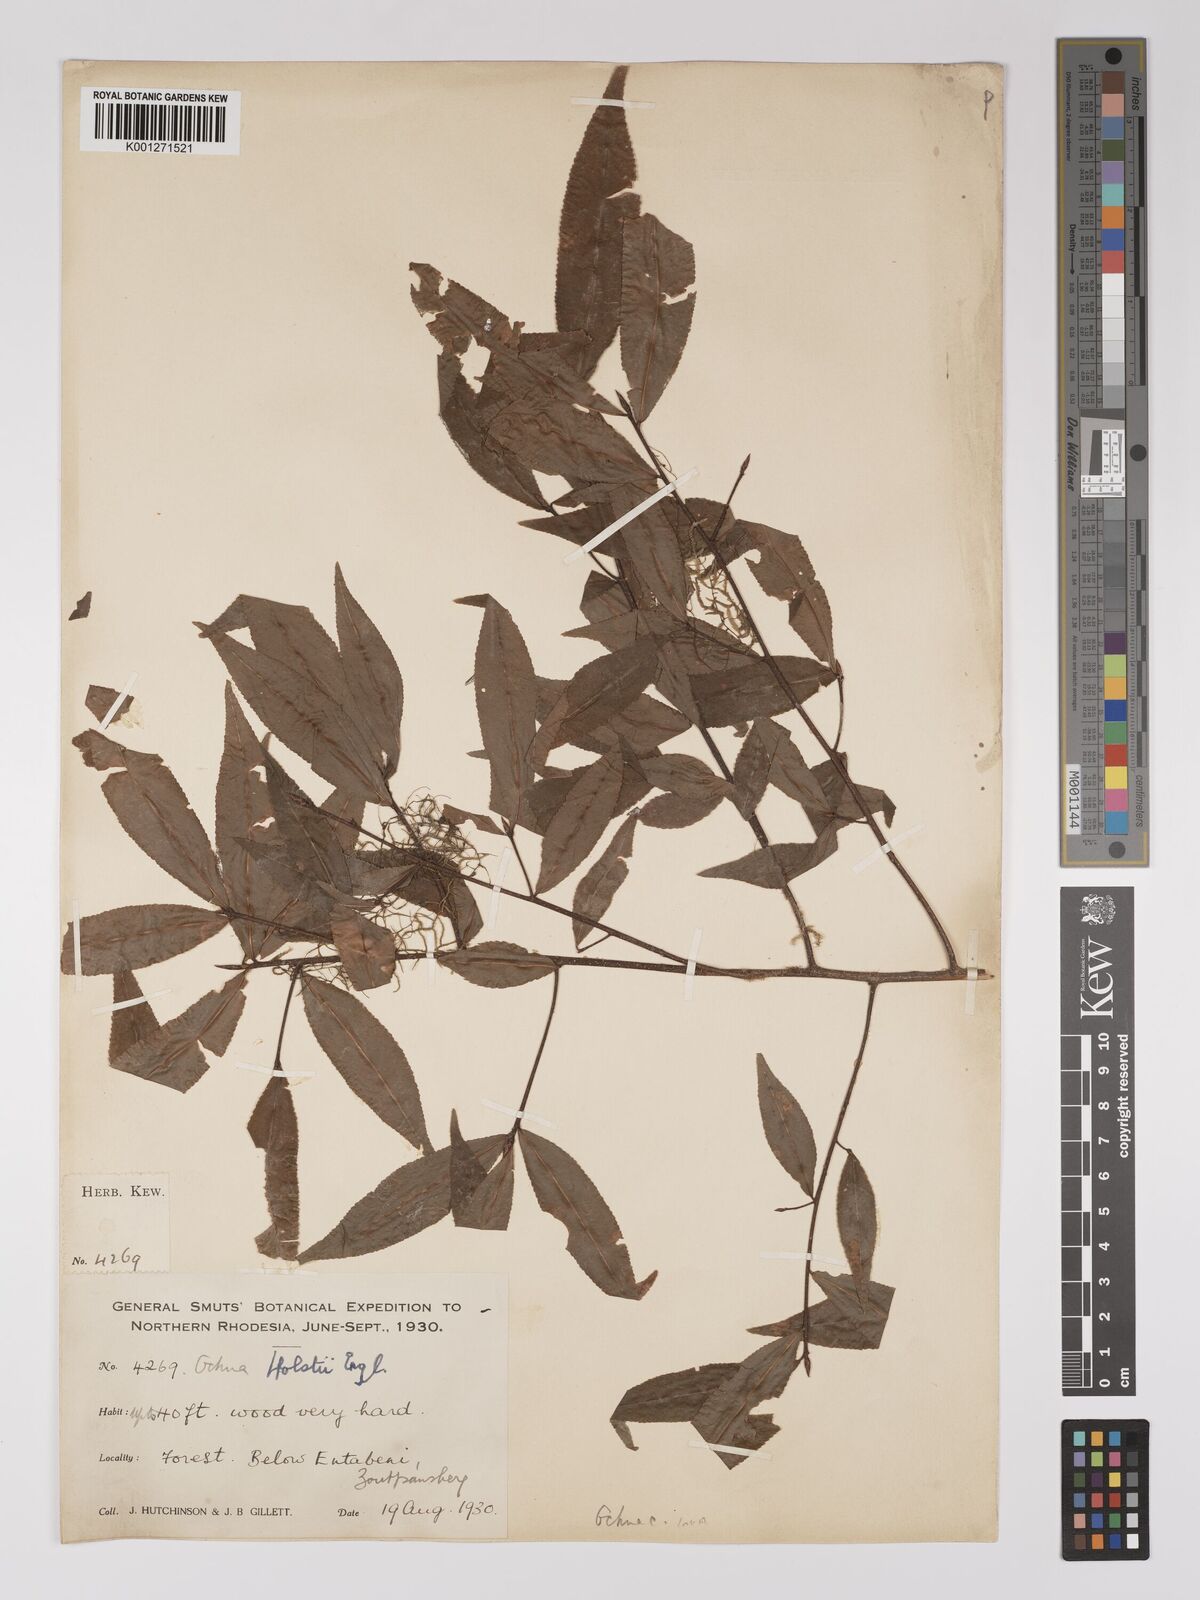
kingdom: Plantae
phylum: Tracheophyta
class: Magnoliopsida
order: Malpighiales
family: Ochnaceae
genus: Ochna
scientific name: Ochna holstii
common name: Red ironwood
